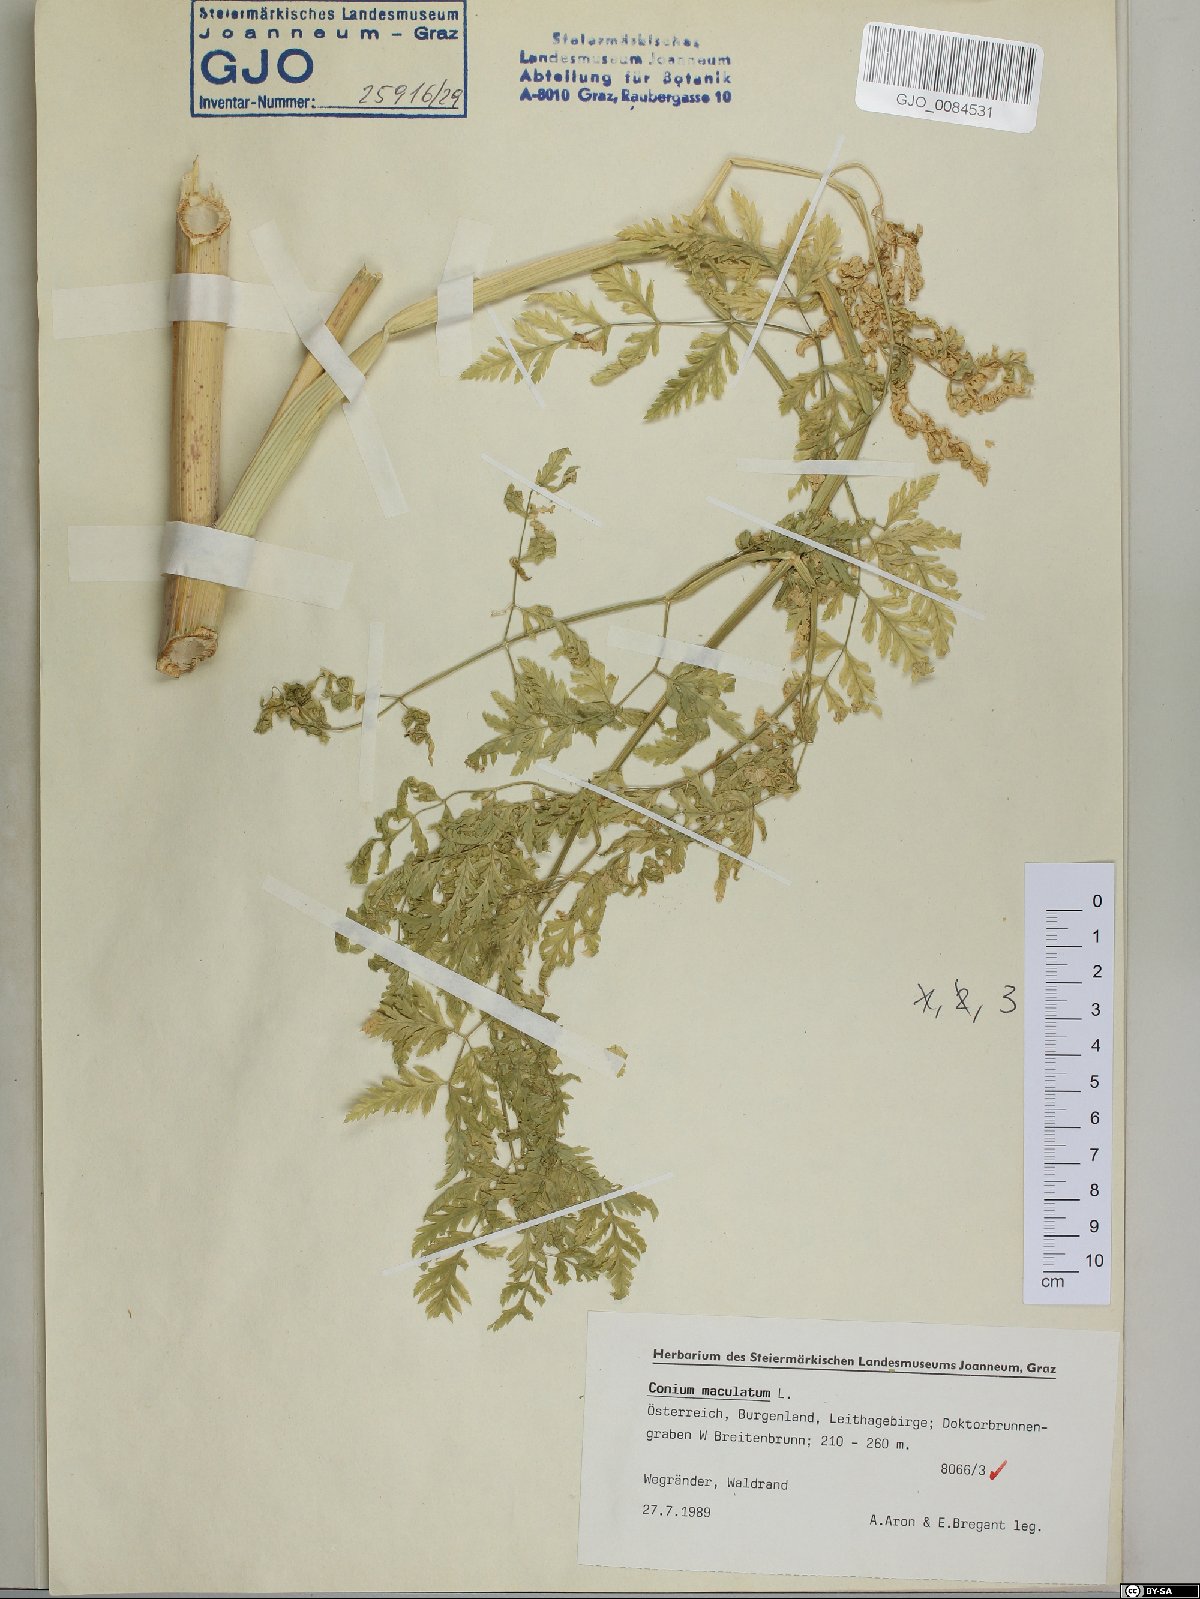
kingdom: Plantae
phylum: Tracheophyta
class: Magnoliopsida
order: Apiales
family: Apiaceae
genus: Conium
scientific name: Conium maculatum
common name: Hemlock
